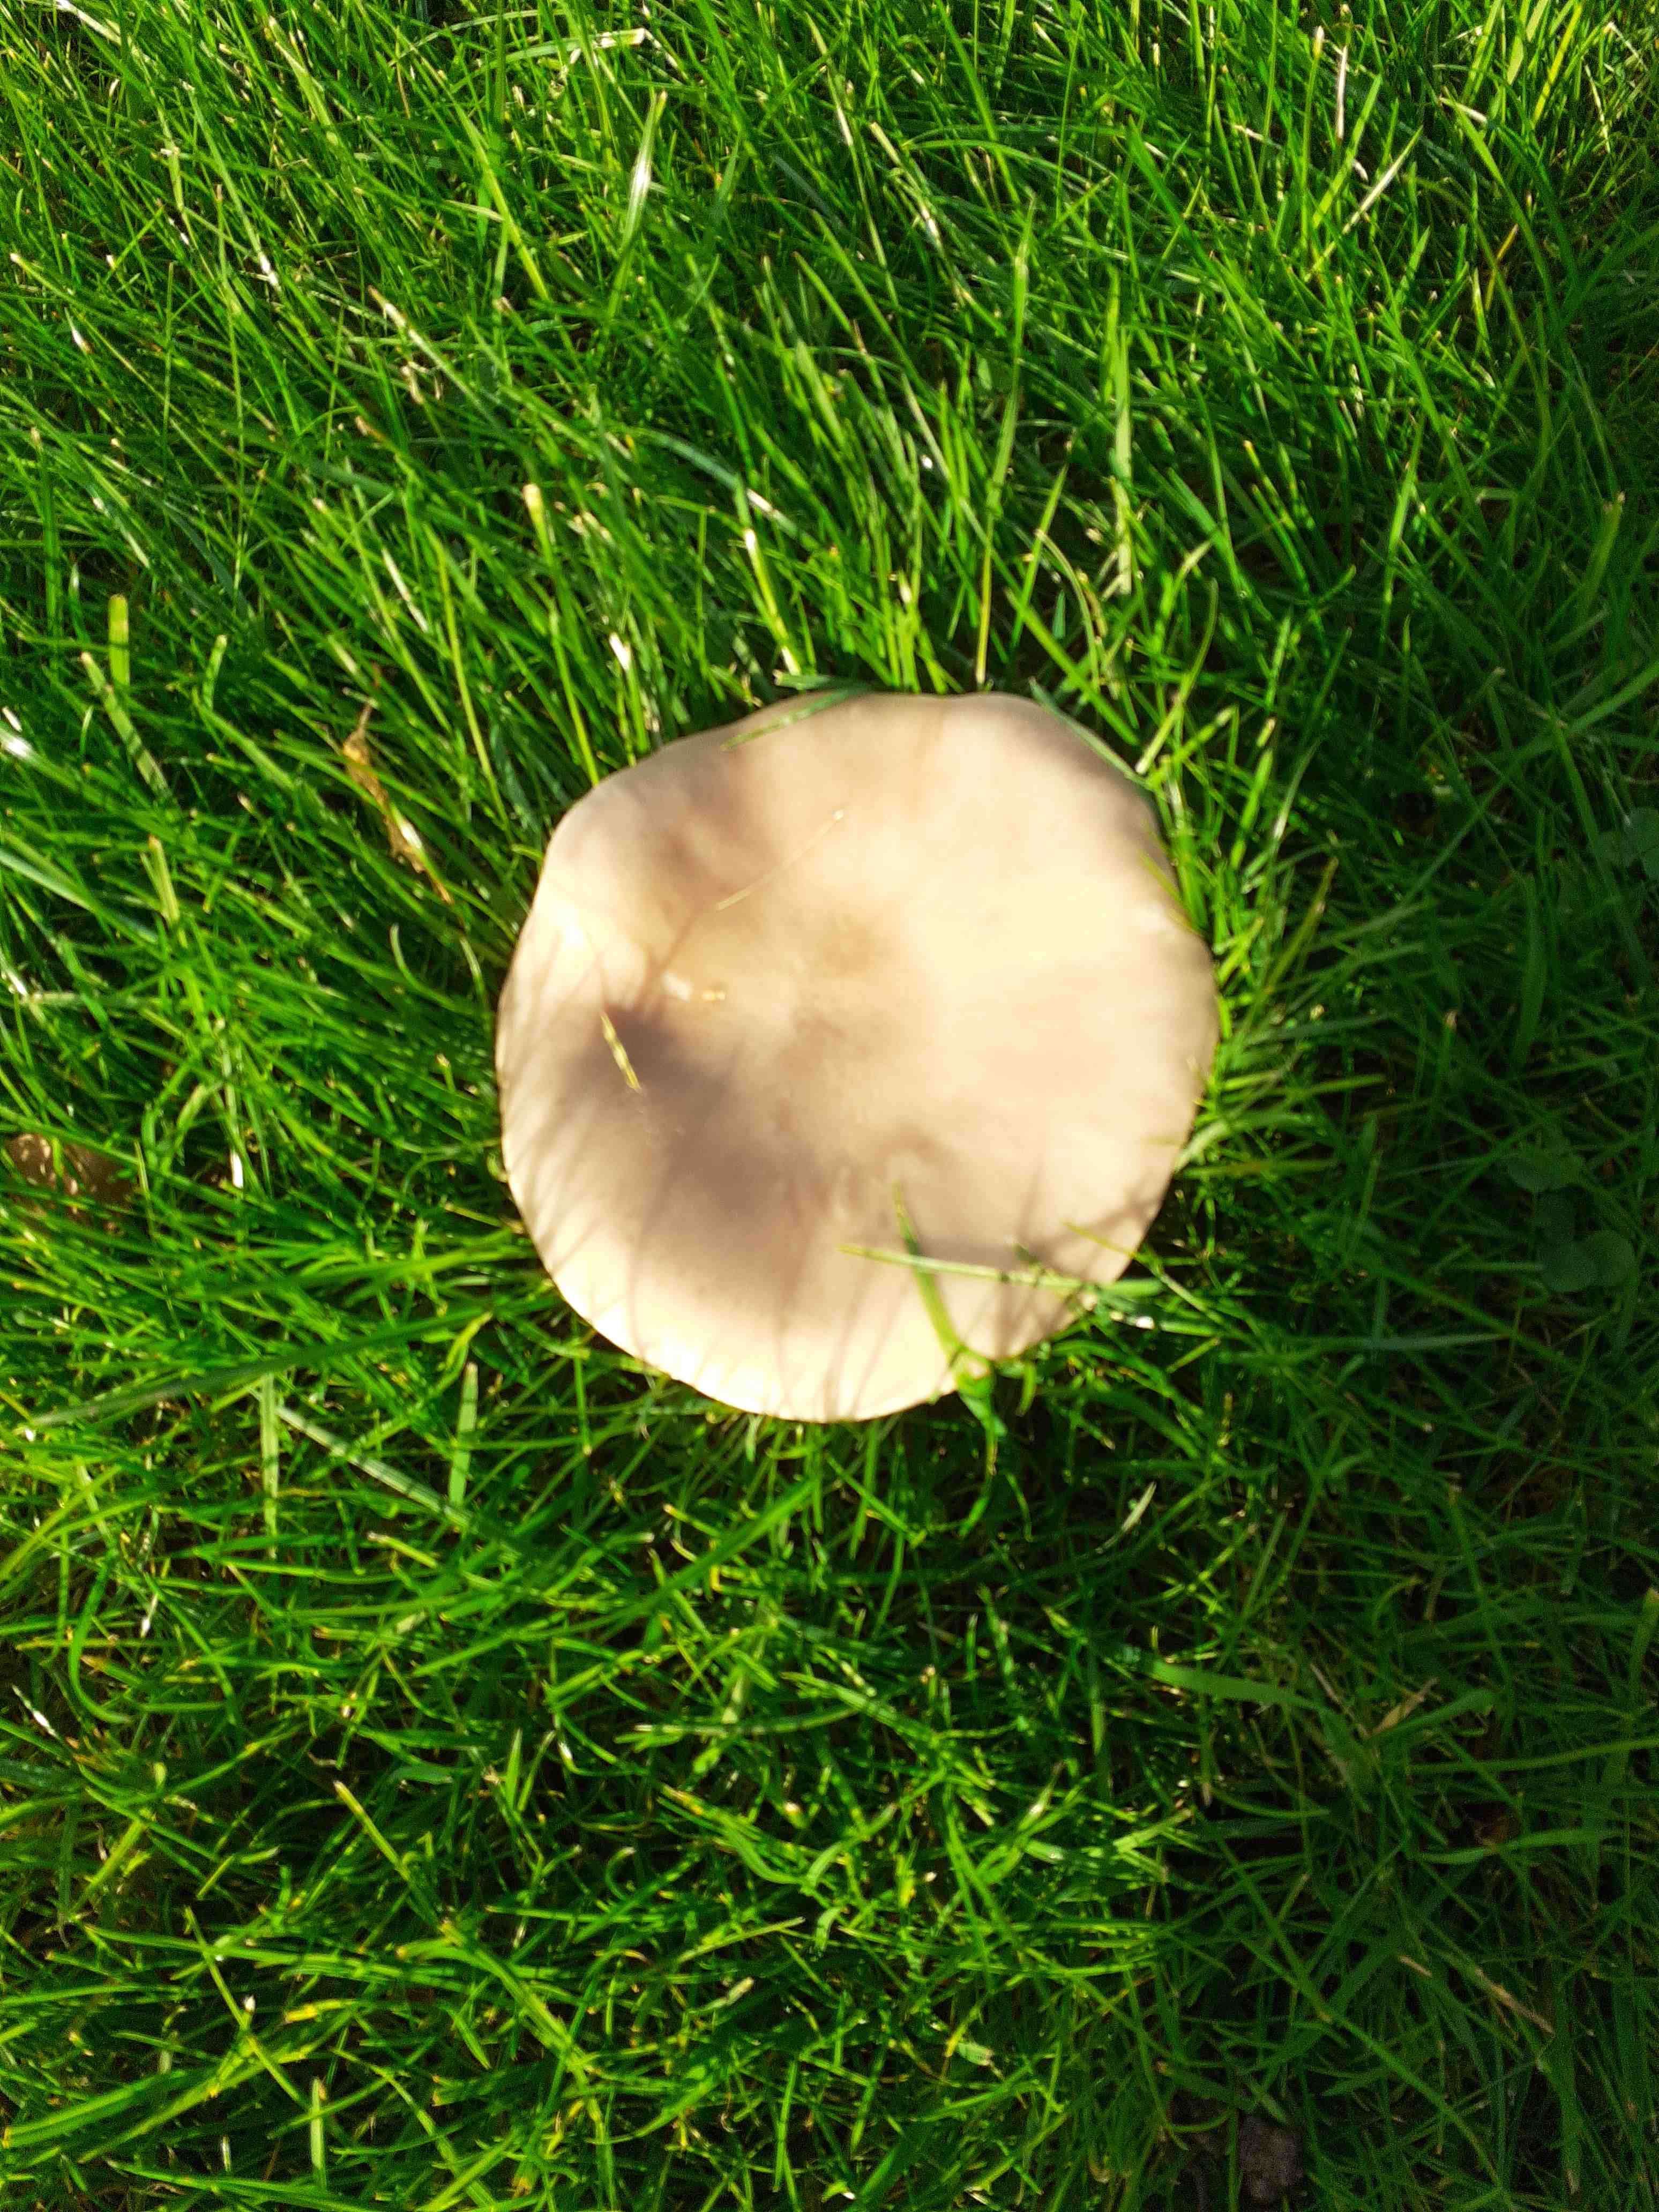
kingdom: Fungi
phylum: Basidiomycota
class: Agaricomycetes
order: Agaricales
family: Tricholomataceae
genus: Lepista
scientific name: Lepista personata
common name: bleg hekseringshat
